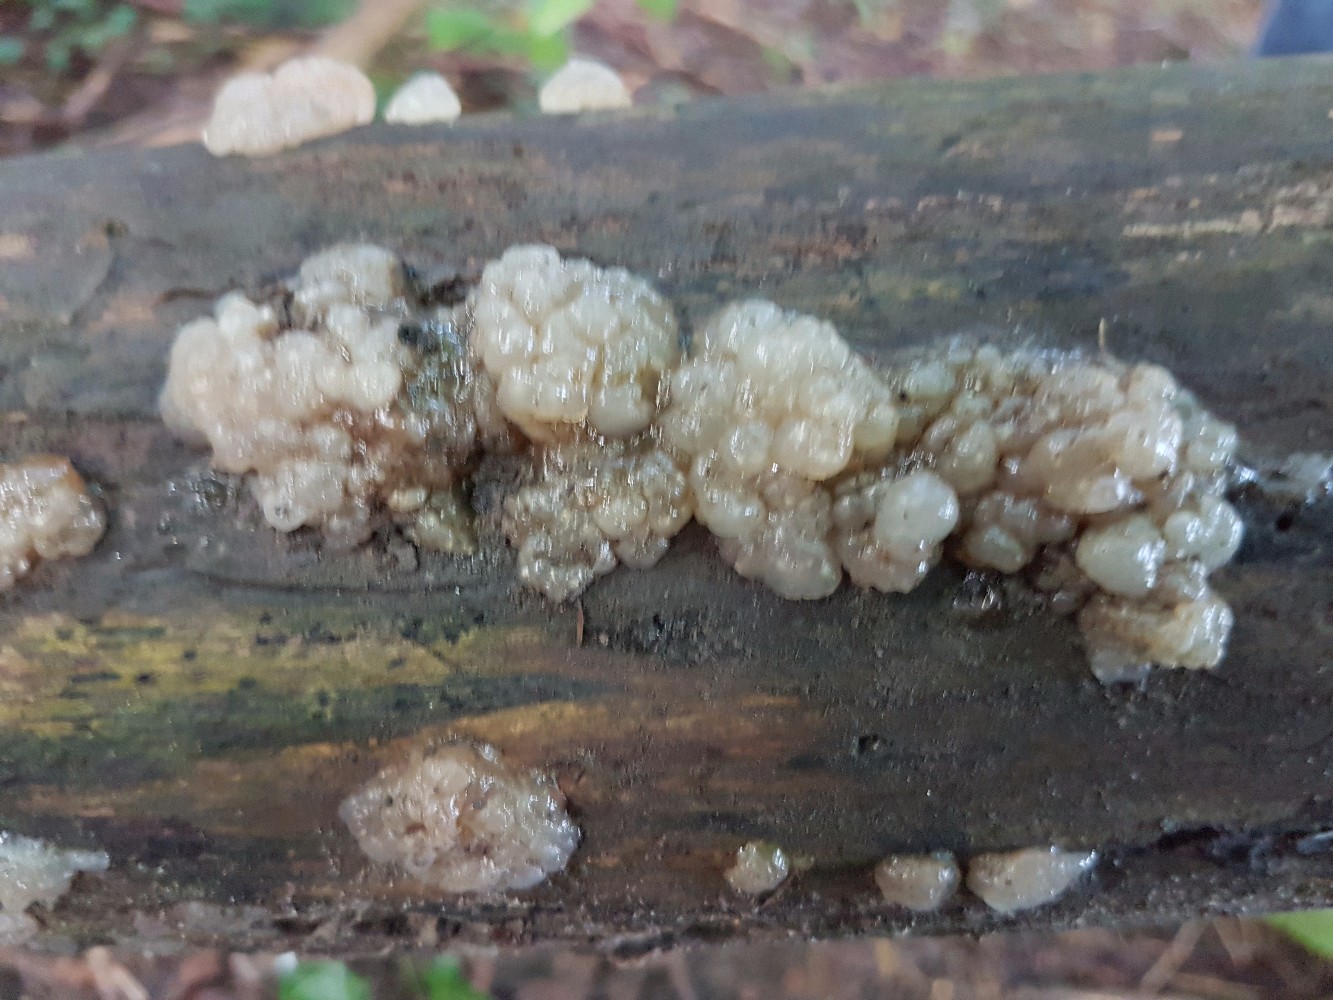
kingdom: Fungi
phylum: Basidiomycota
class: Agaricomycetes
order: Auriculariales
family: Hyaloriaceae
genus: Myxarium
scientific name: Myxarium nucleatum
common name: klar bævretop
